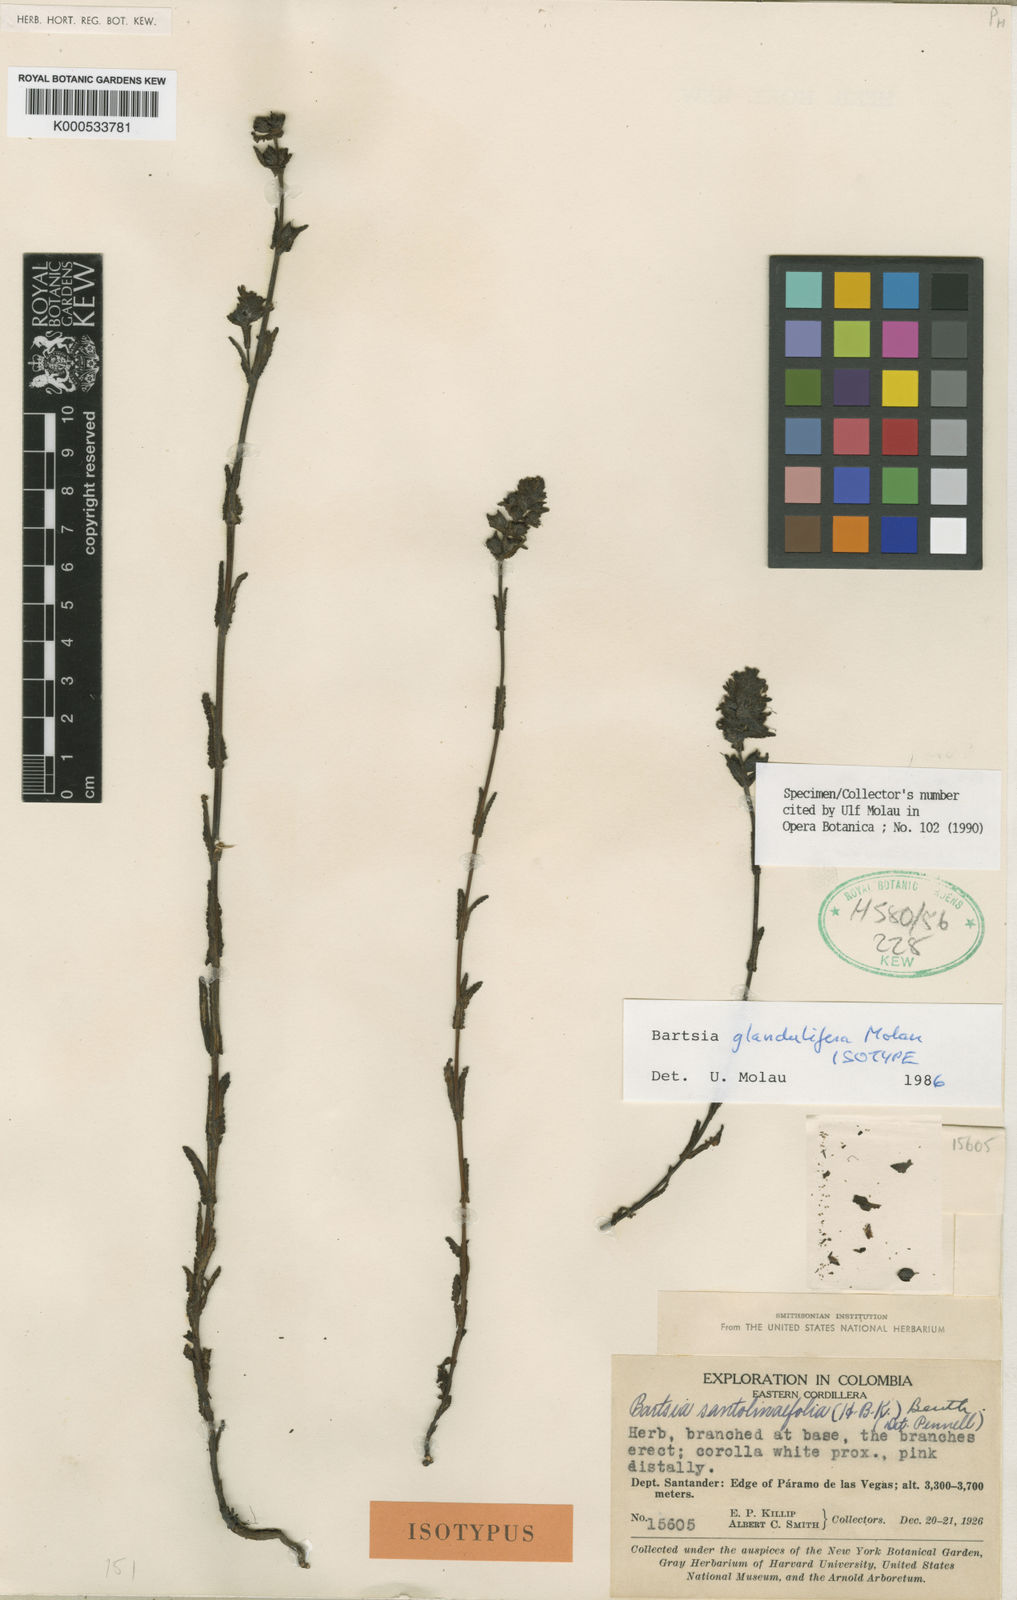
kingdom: Plantae
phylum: Tracheophyta
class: Magnoliopsida
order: Lamiales
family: Orobanchaceae
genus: Neobartsia
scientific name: Neobartsia glandulifera
